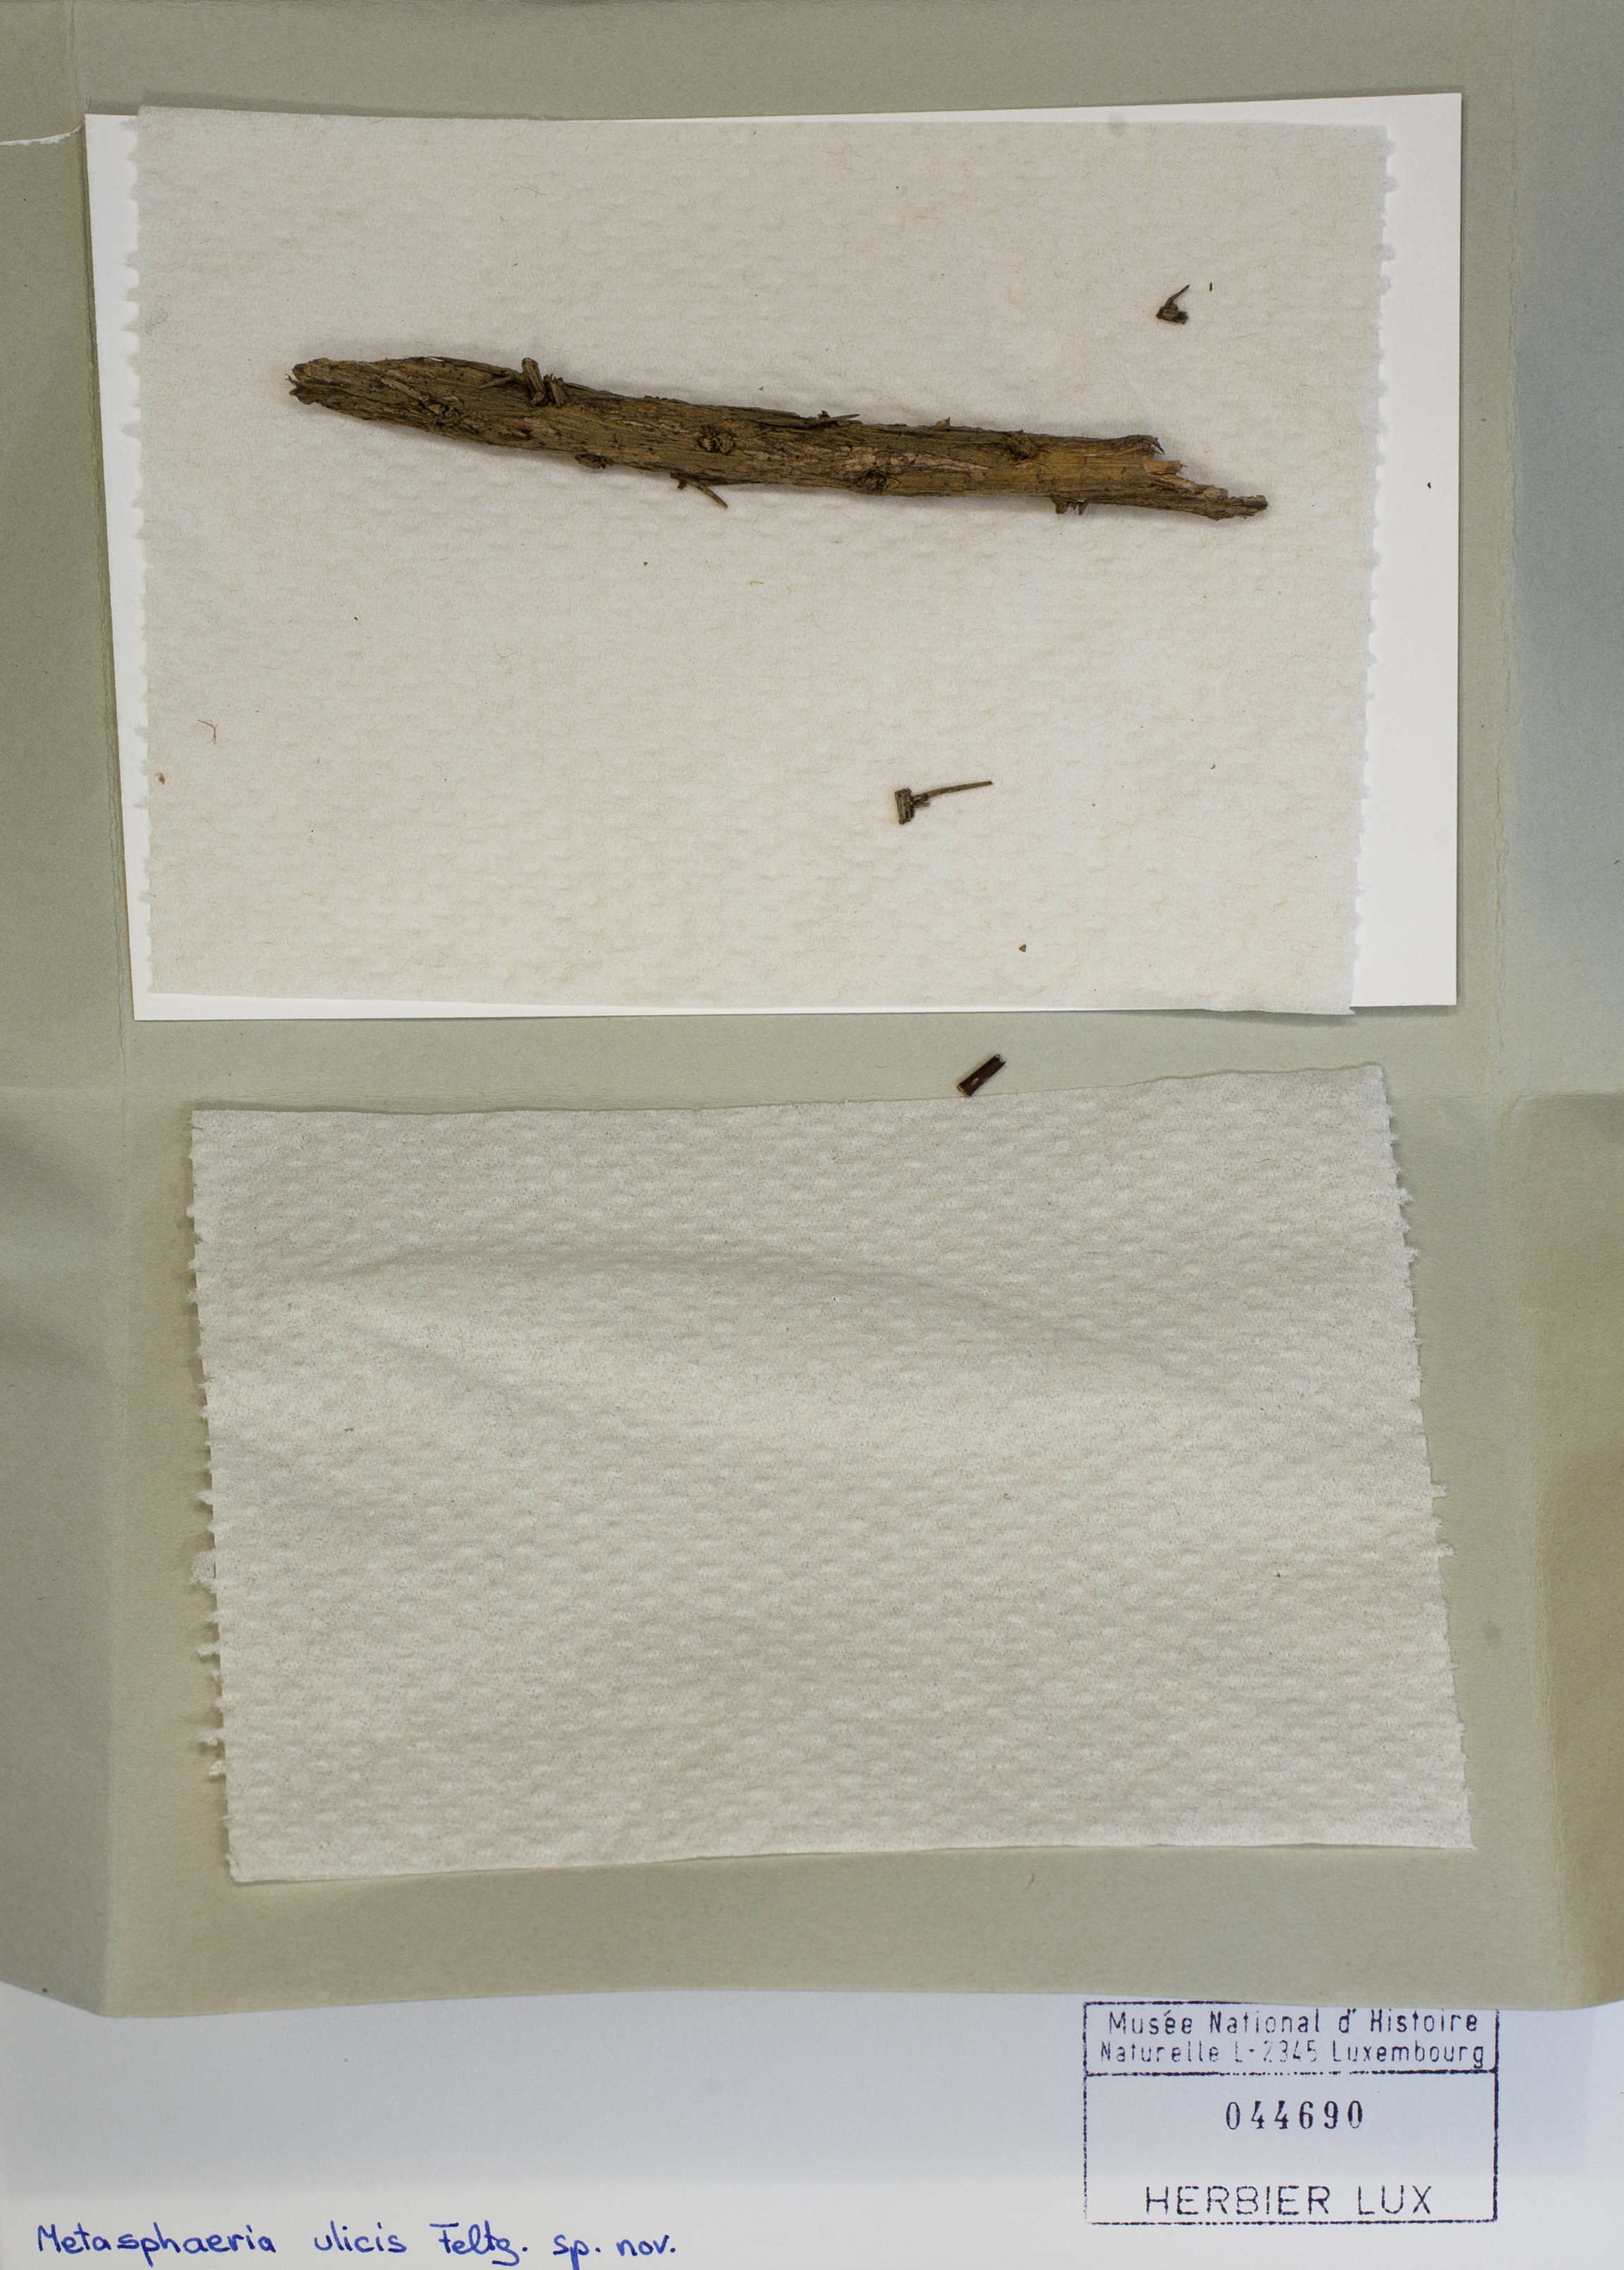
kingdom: Fungi
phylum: Ascomycota
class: Dothideomycetes
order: Dothideales
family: Saccotheciaceae
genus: Metasphaeria
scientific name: Metasphaeria ulicis
